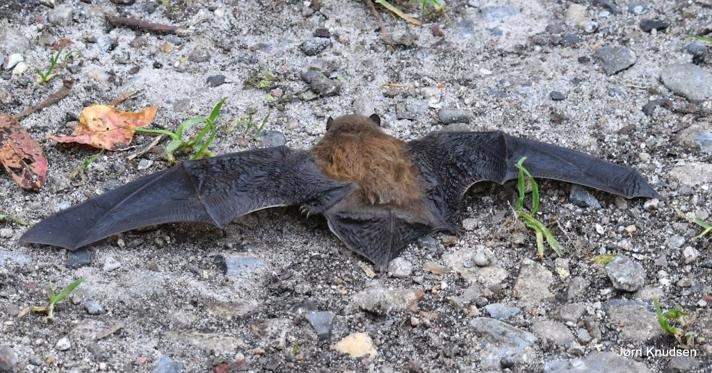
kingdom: Animalia
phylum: Chordata
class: Mammalia
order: Chiroptera
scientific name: Chiroptera
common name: Flagermus
